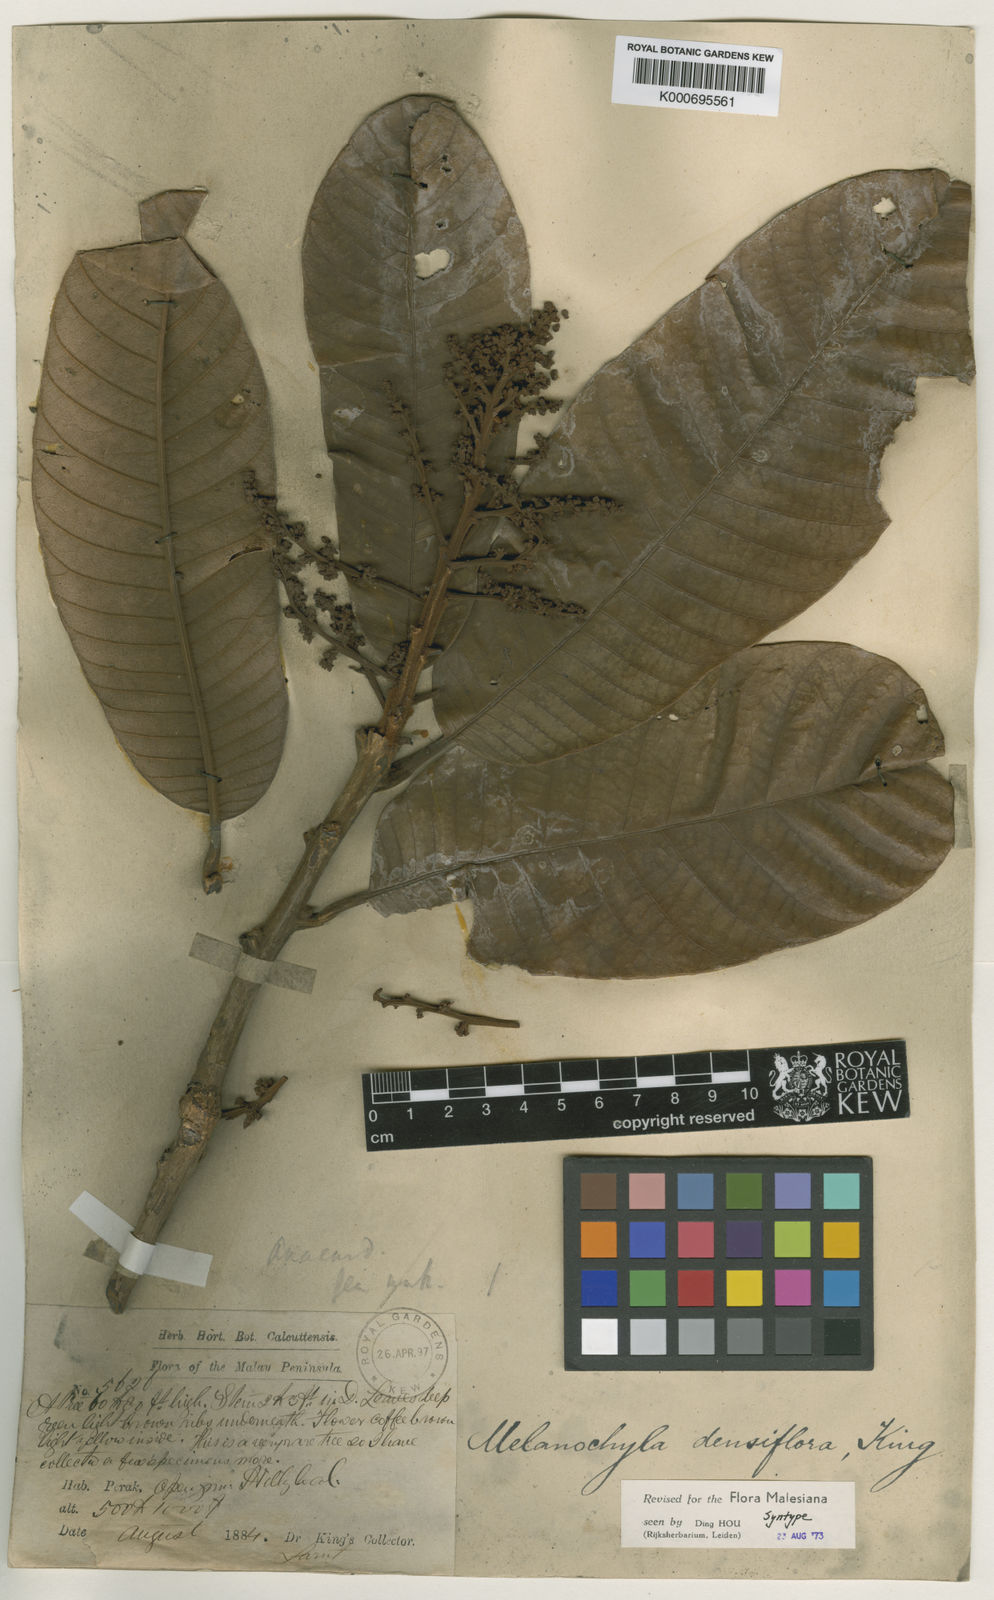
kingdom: Plantae
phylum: Tracheophyta
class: Magnoliopsida
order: Sapindales
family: Anacardiaceae
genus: Melanochyla
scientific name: Melanochyla densiflora
